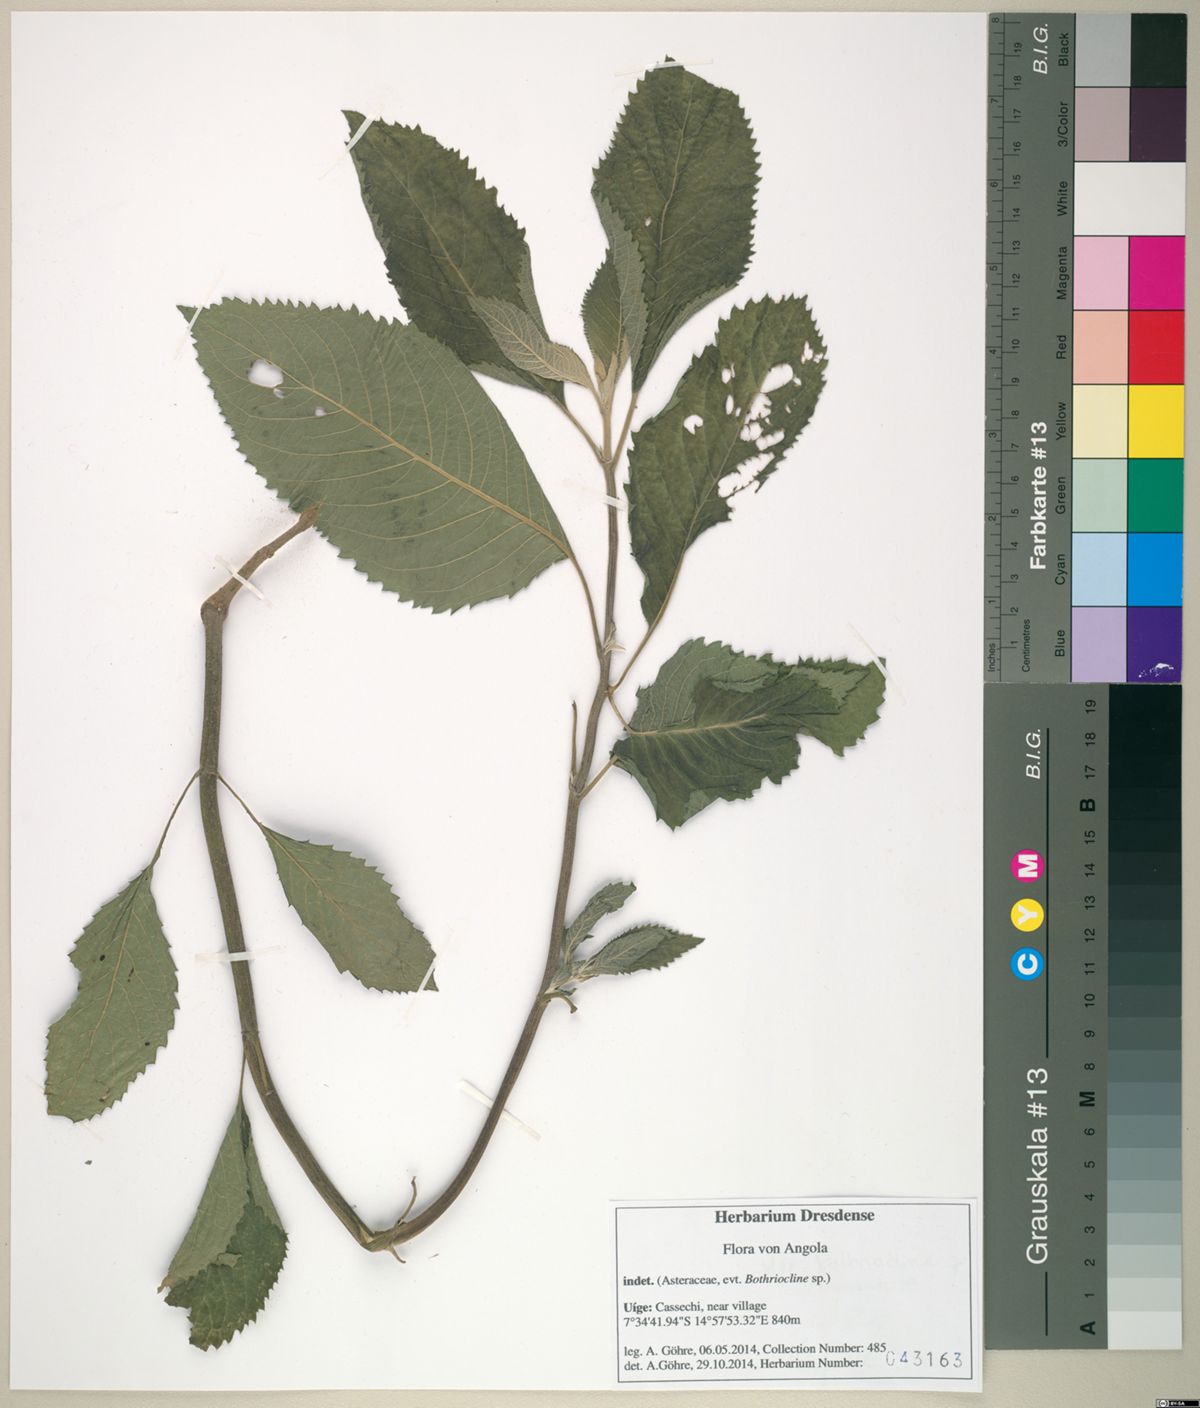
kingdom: Plantae
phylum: Tracheophyta
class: Magnoliopsida
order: Asterales
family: Asteraceae
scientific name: Asteraceae
